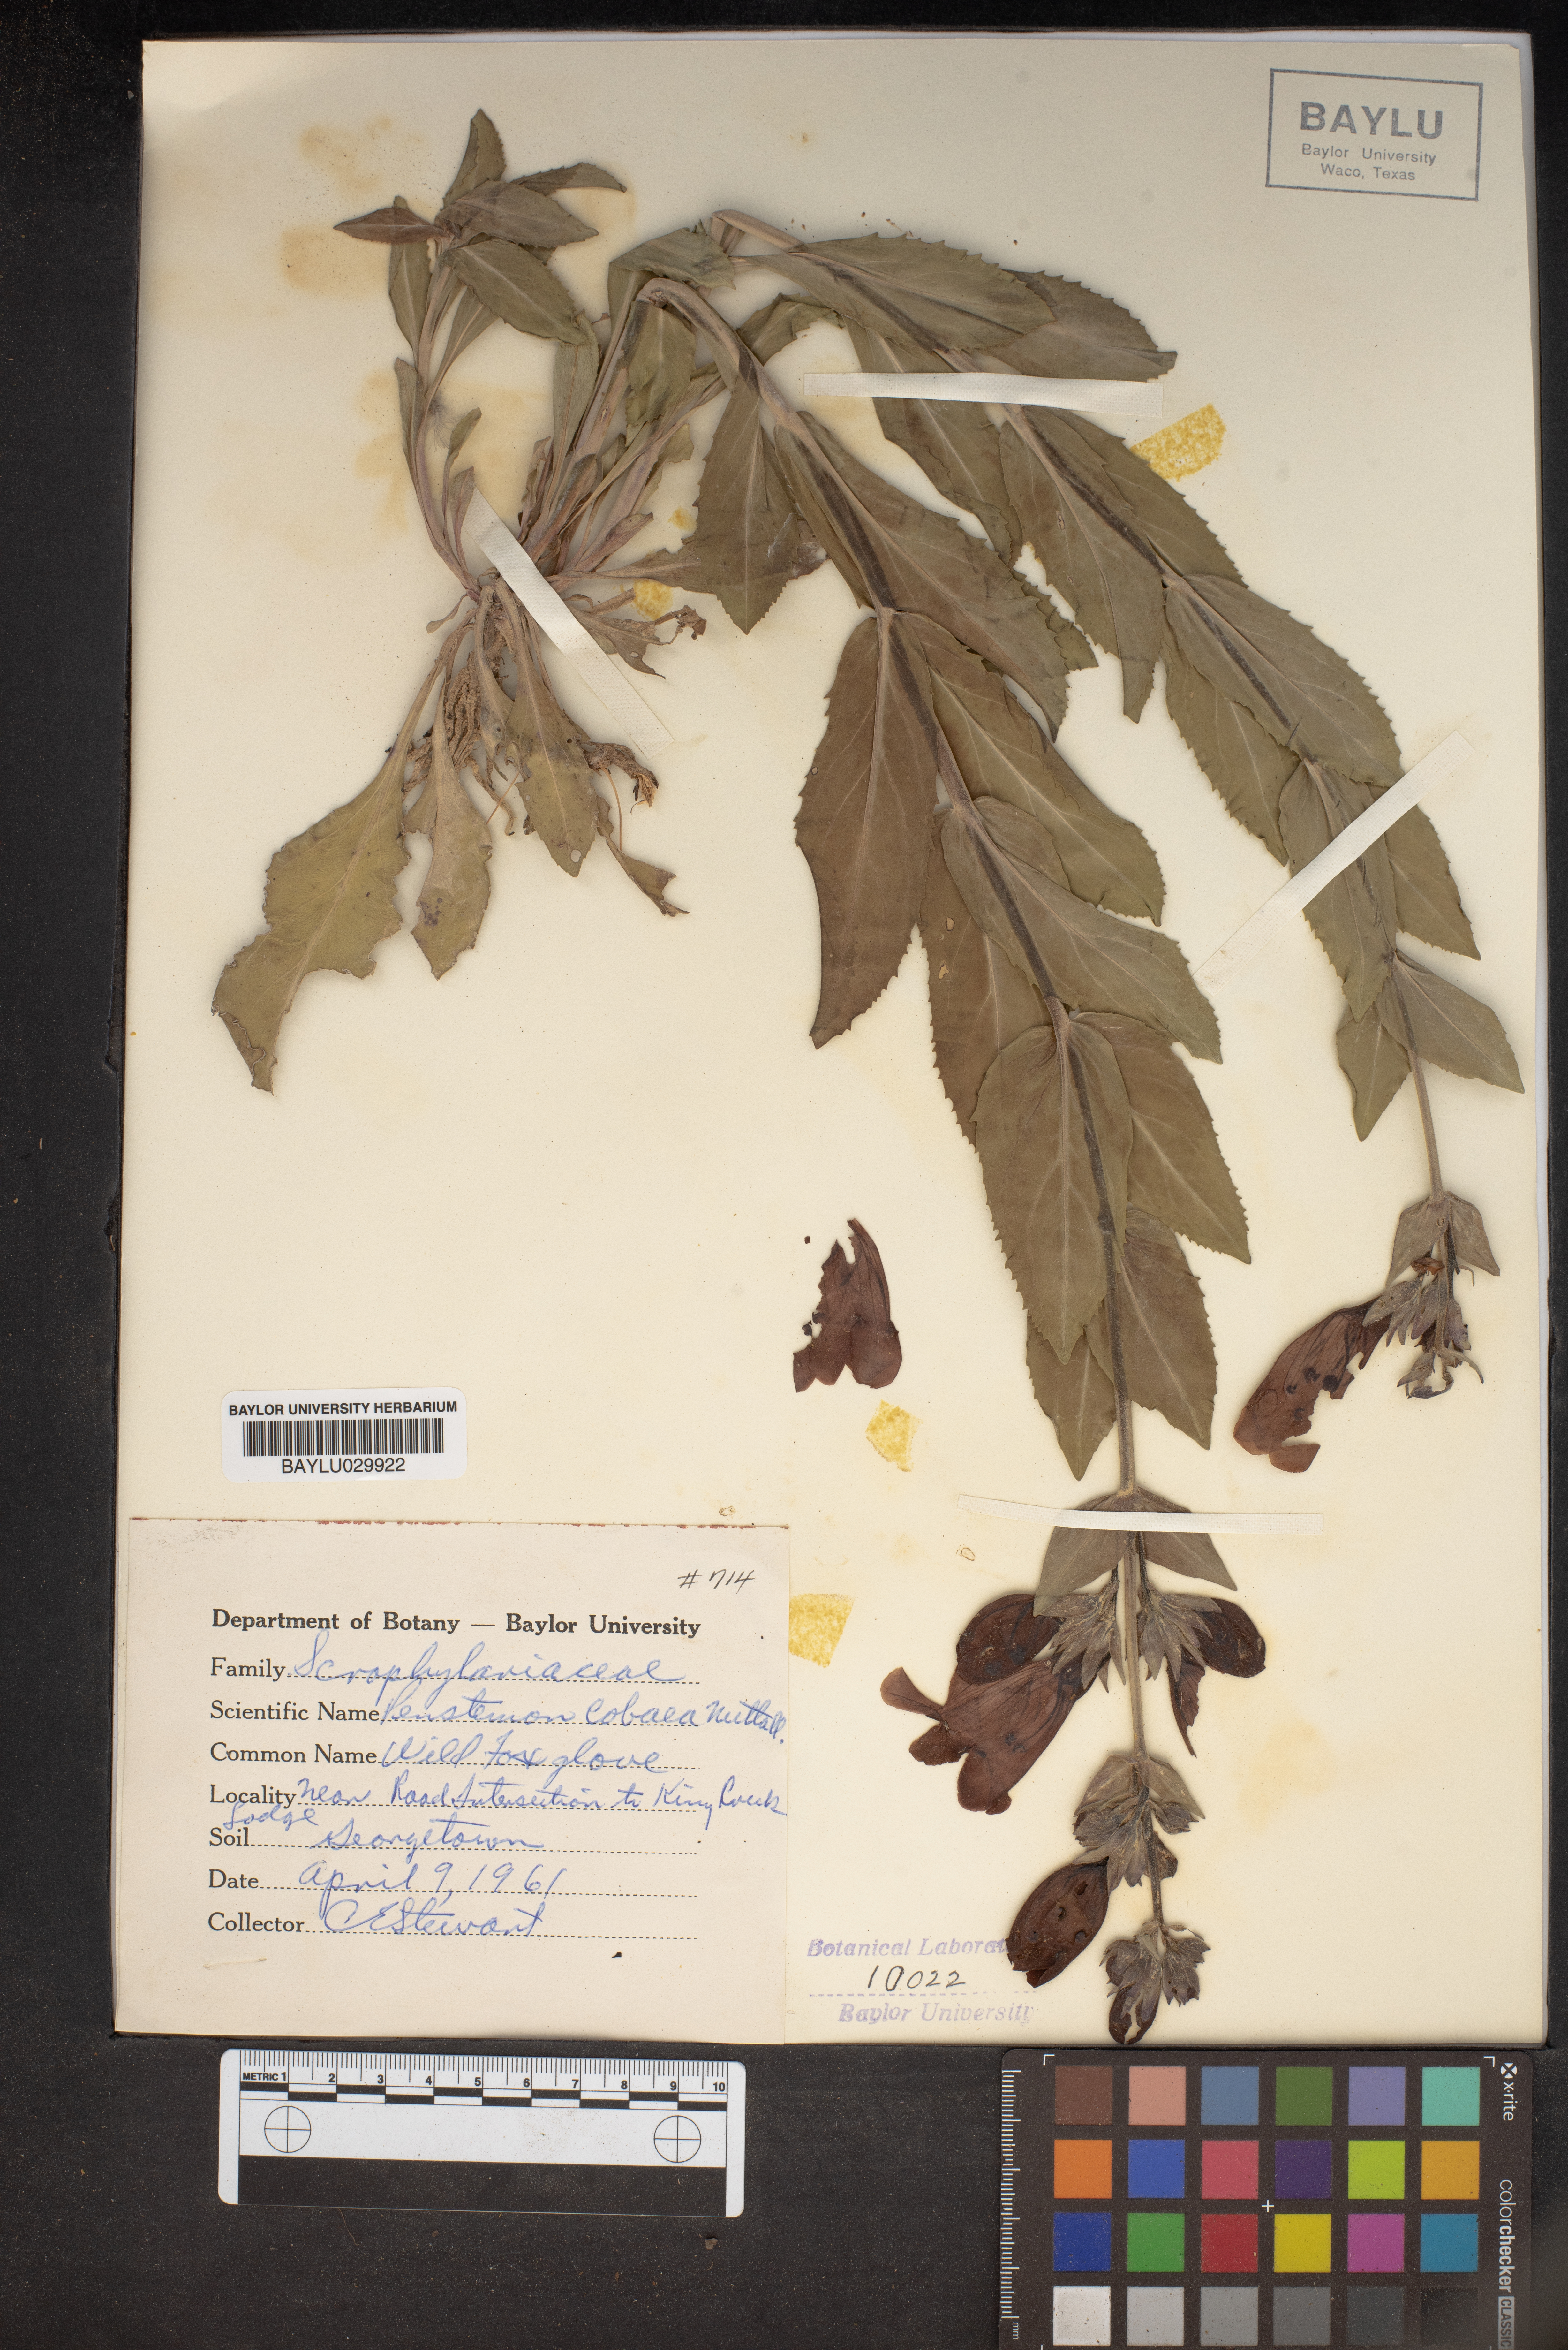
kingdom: Plantae
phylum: Tracheophyta
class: Magnoliopsida
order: Lamiales
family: Plantaginaceae
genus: Penstemon
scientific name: Penstemon cobaea
